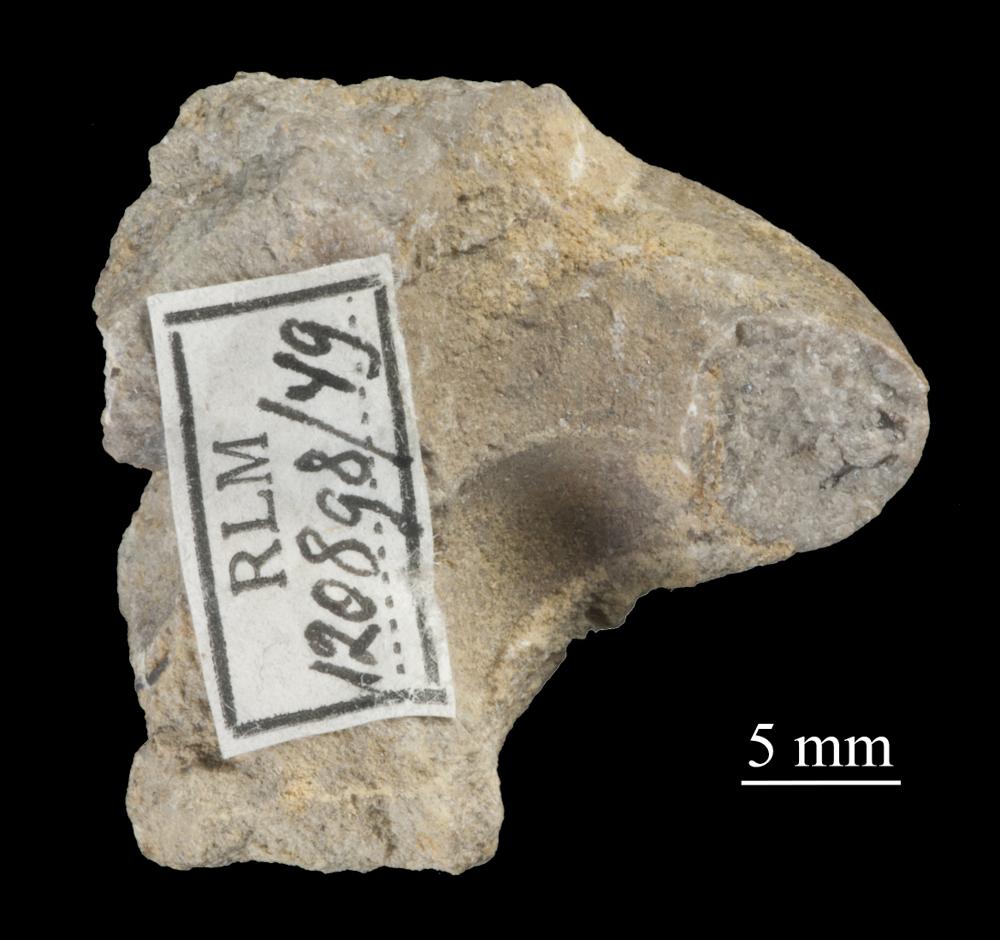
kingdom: Animalia
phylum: Mollusca
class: Gastropoda
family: Bellerophontidae
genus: Bellerophon
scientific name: Bellerophon compressus
